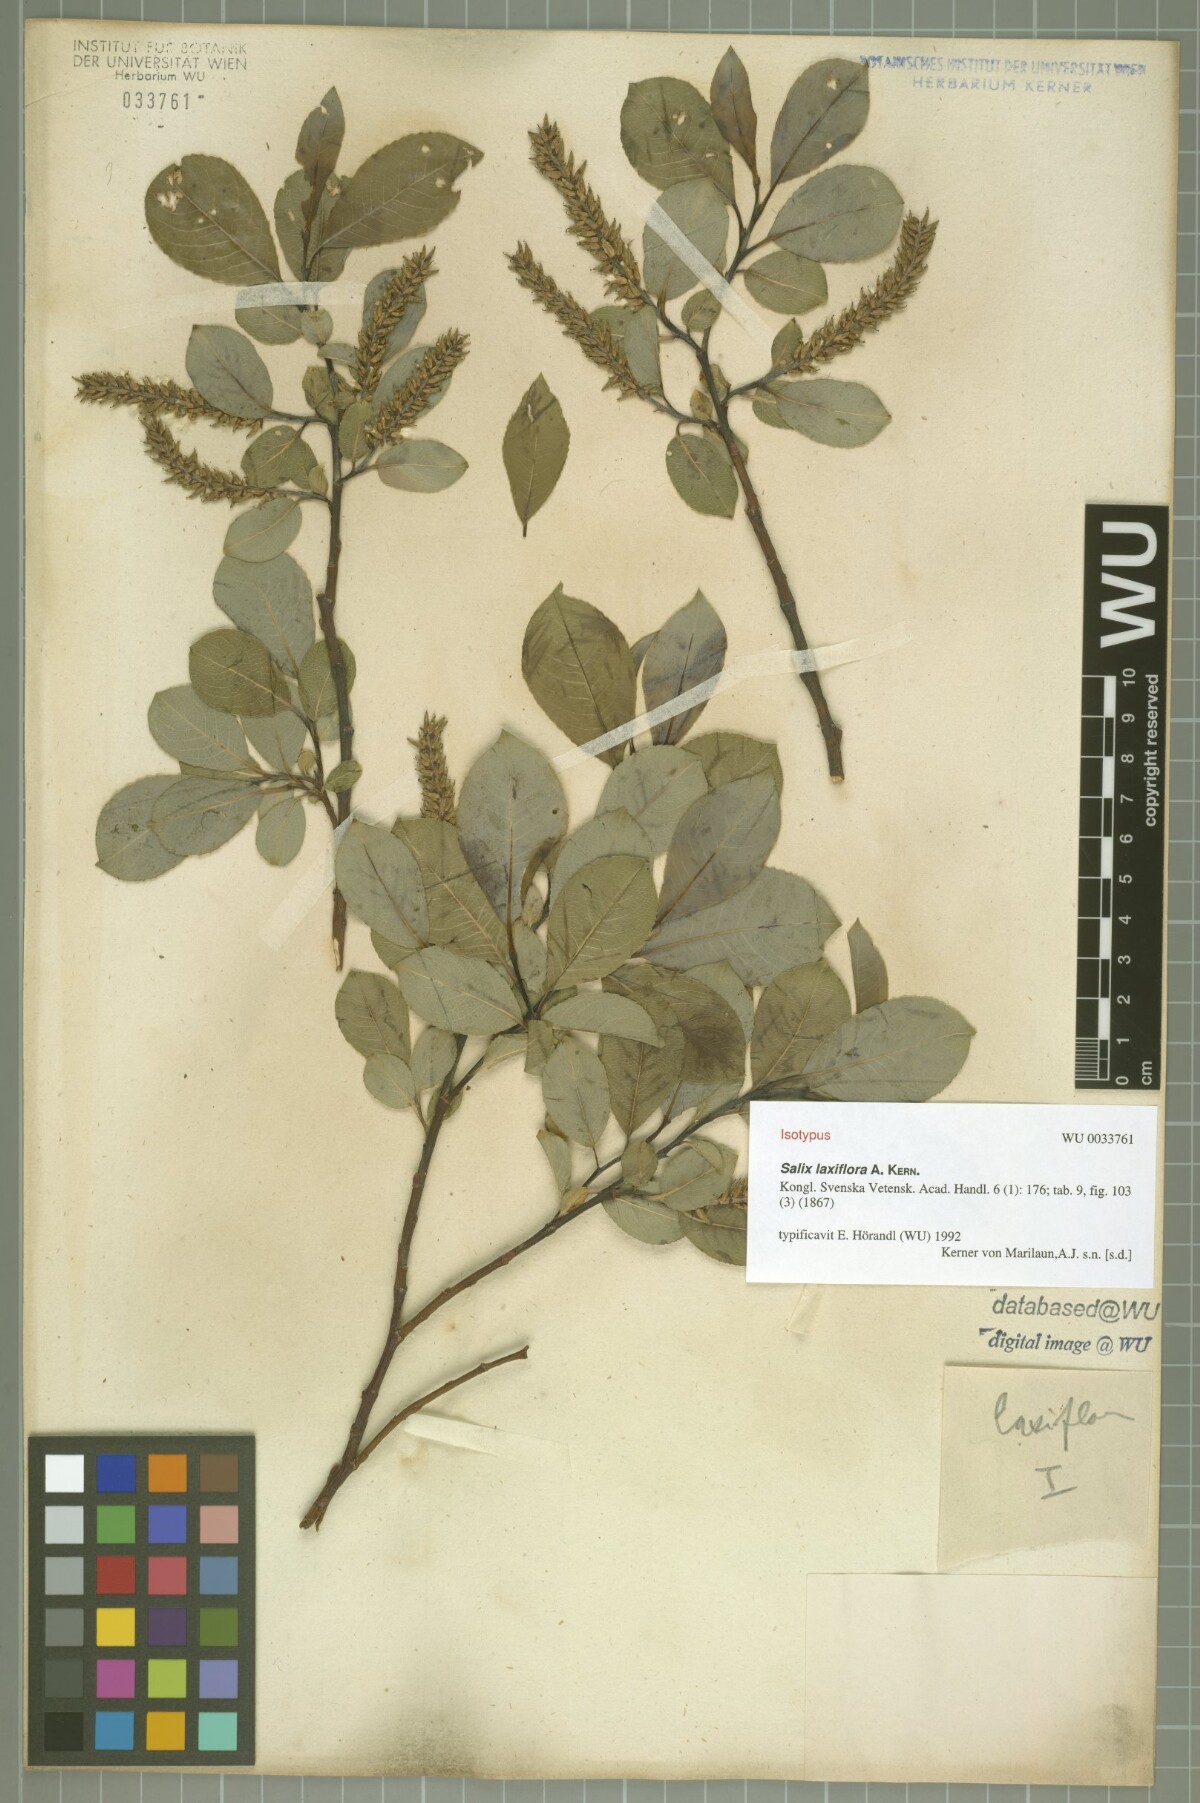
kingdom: Plantae
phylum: Tracheophyta
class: Magnoliopsida
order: Malpighiales
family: Salicaceae
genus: Salix
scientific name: Salix glabra
